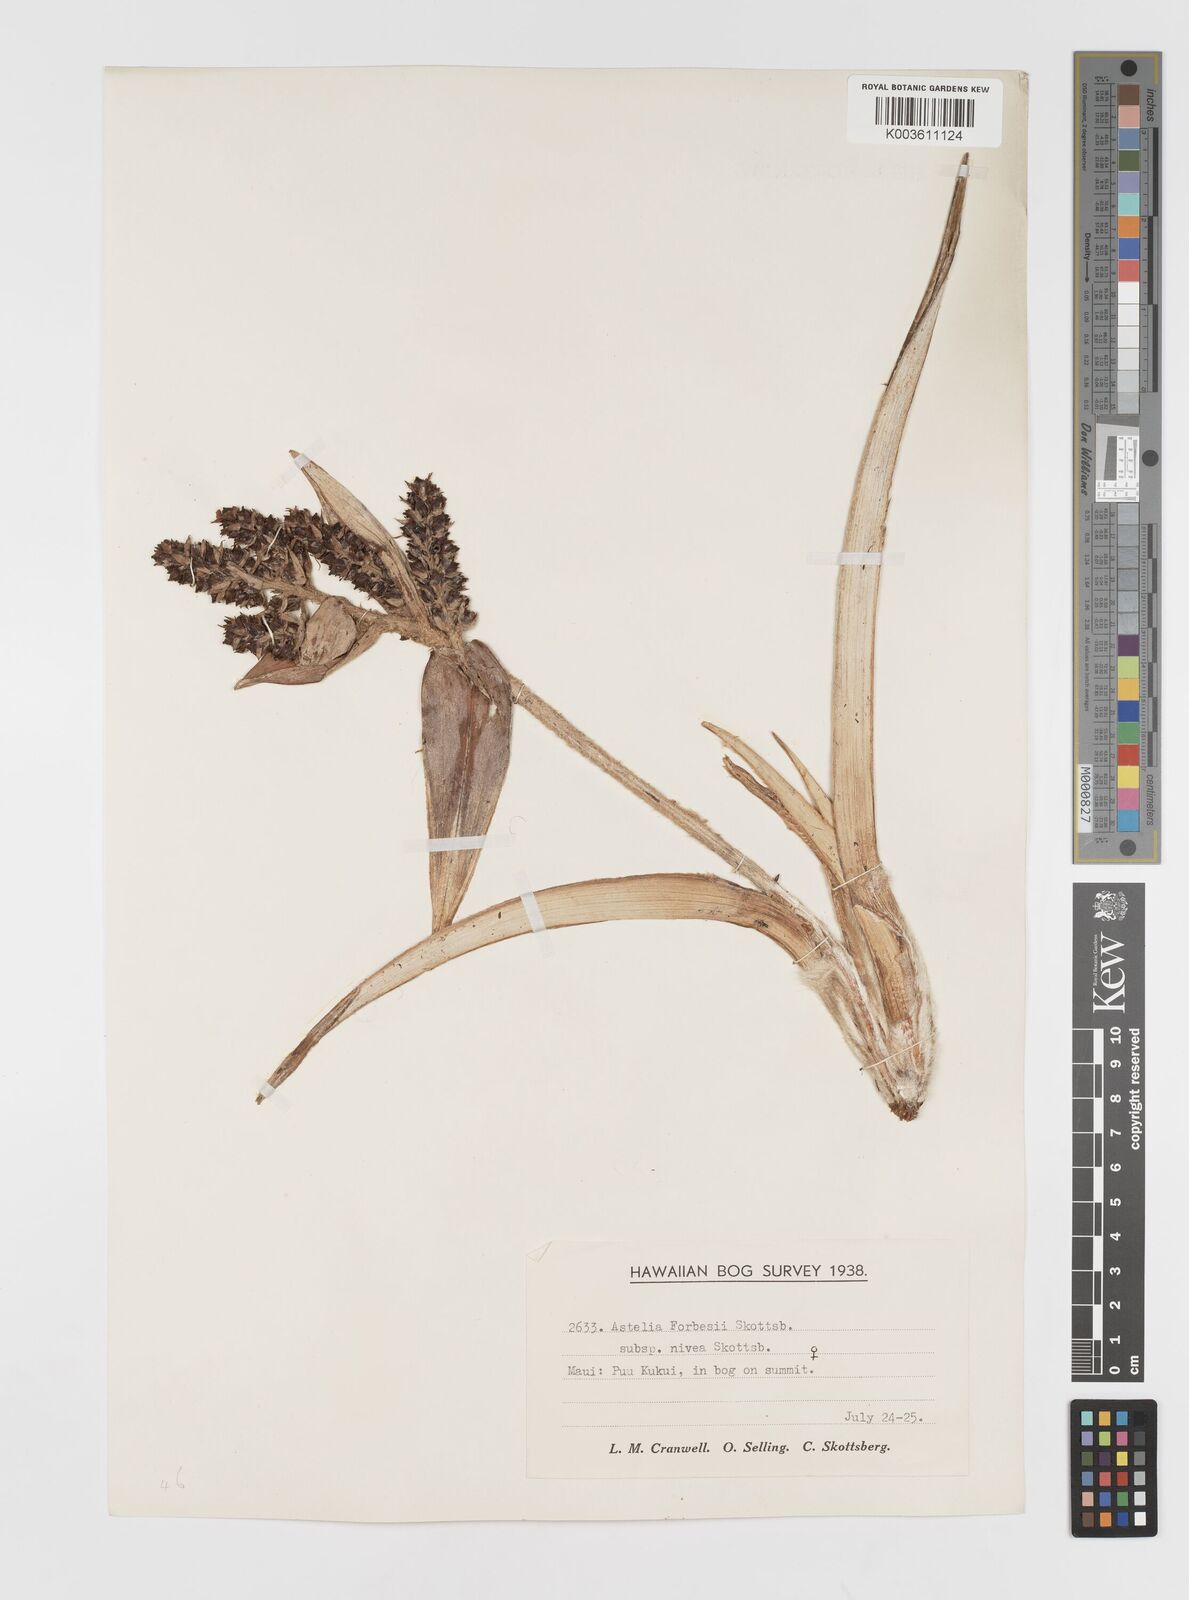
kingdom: Plantae
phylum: Tracheophyta
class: Liliopsida
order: Asparagales
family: Asteliaceae
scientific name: Asteliaceae
